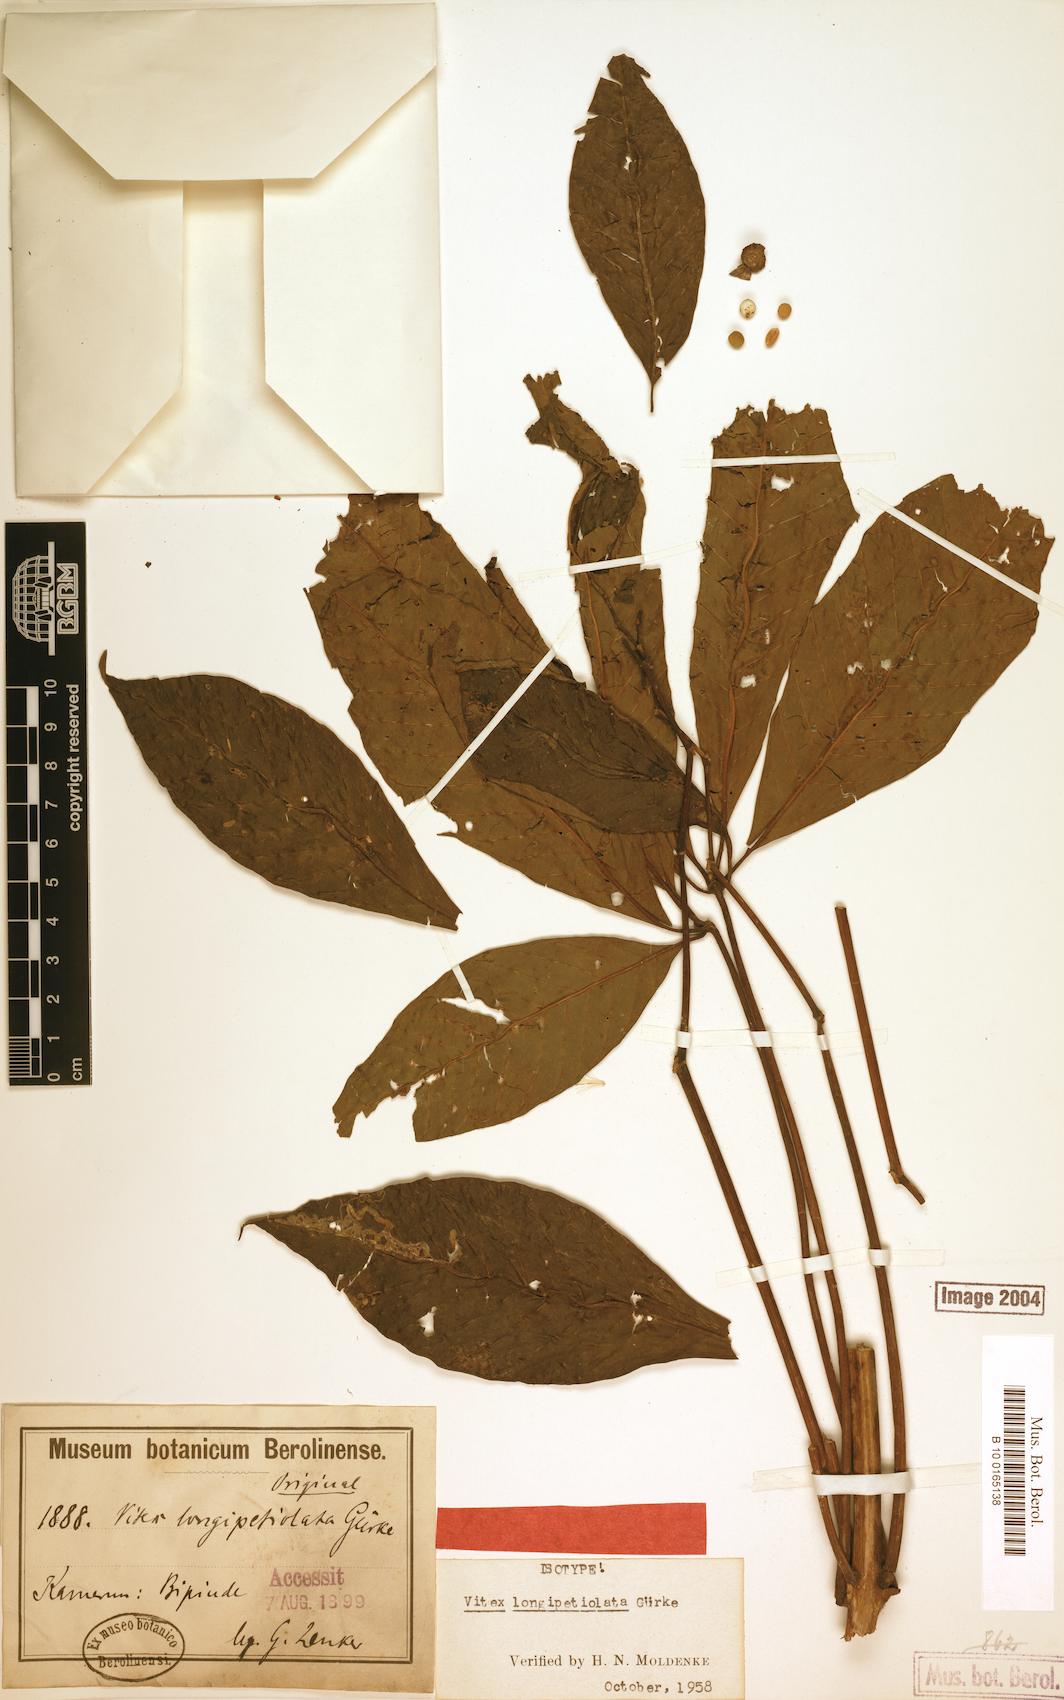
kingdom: Plantae
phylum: Tracheophyta
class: Magnoliopsida
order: Lamiales
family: Lamiaceae
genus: Vitex
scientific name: Vitex rivularis
